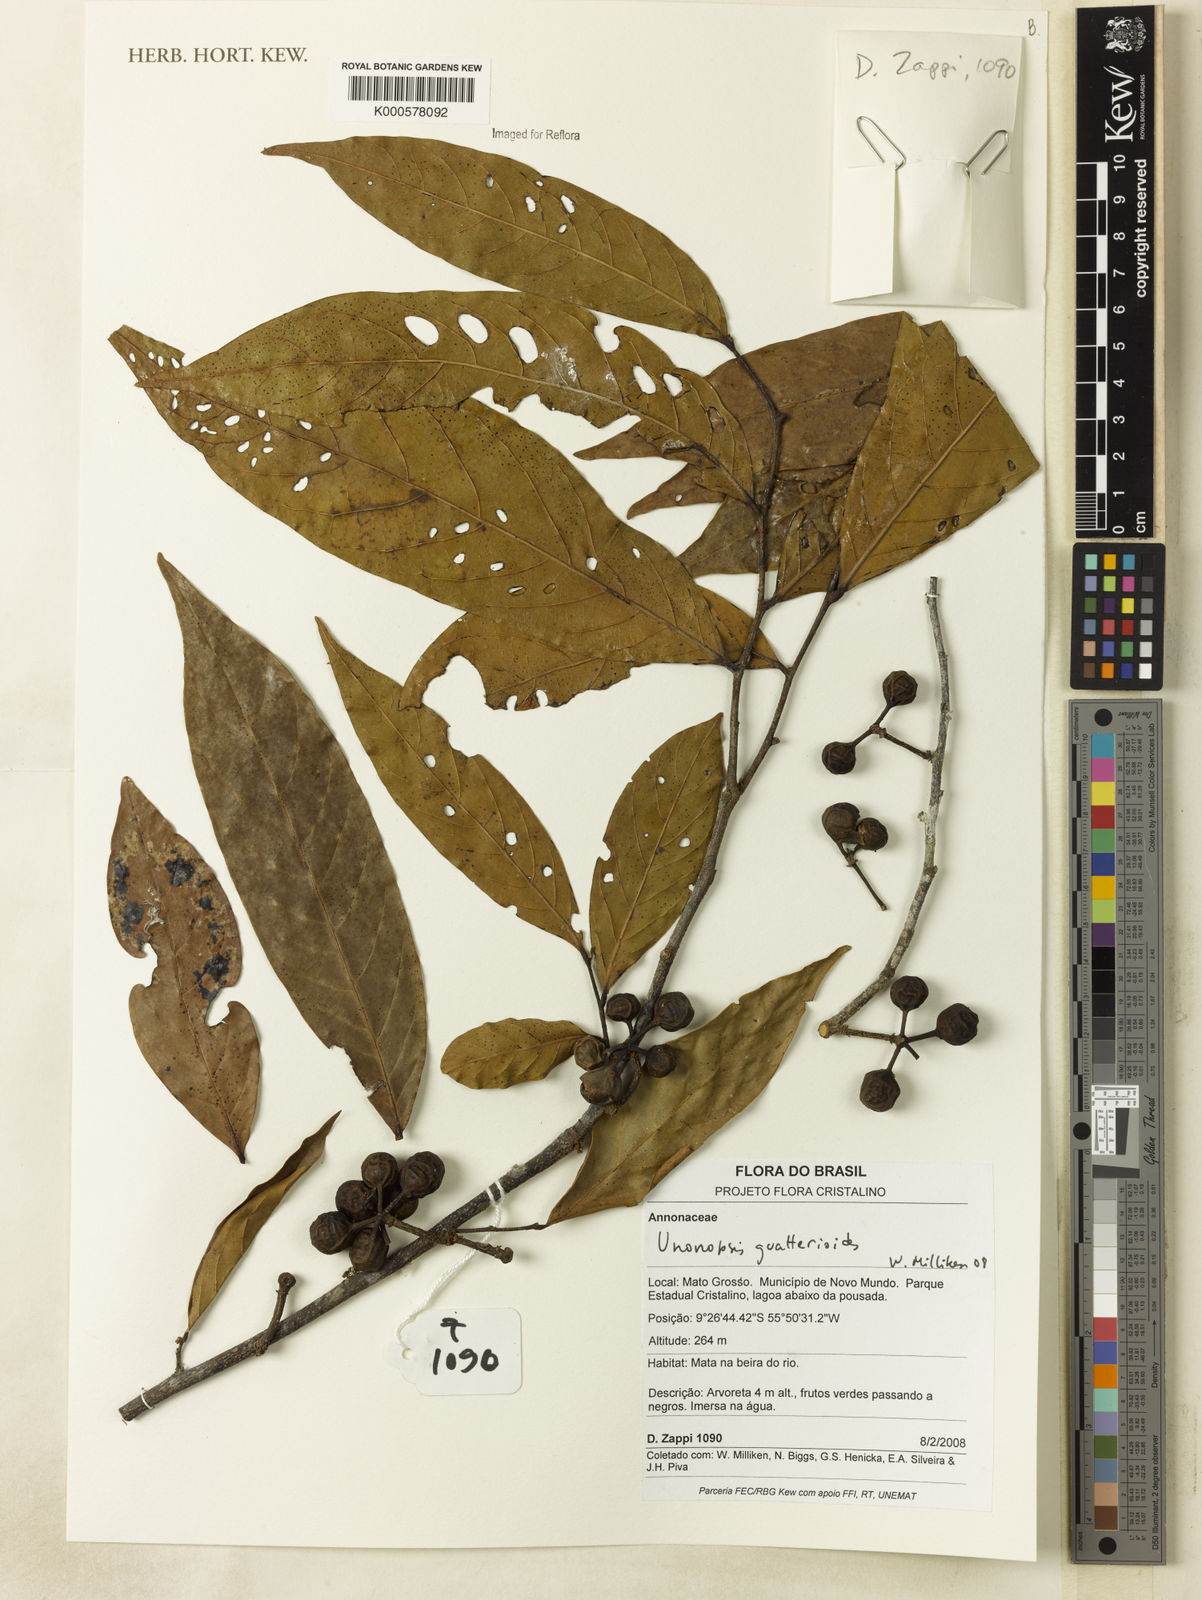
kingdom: Plantae
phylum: Tracheophyta
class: Magnoliopsida
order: Magnoliales
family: Annonaceae
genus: Unonopsis
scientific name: Unonopsis guatterioides
